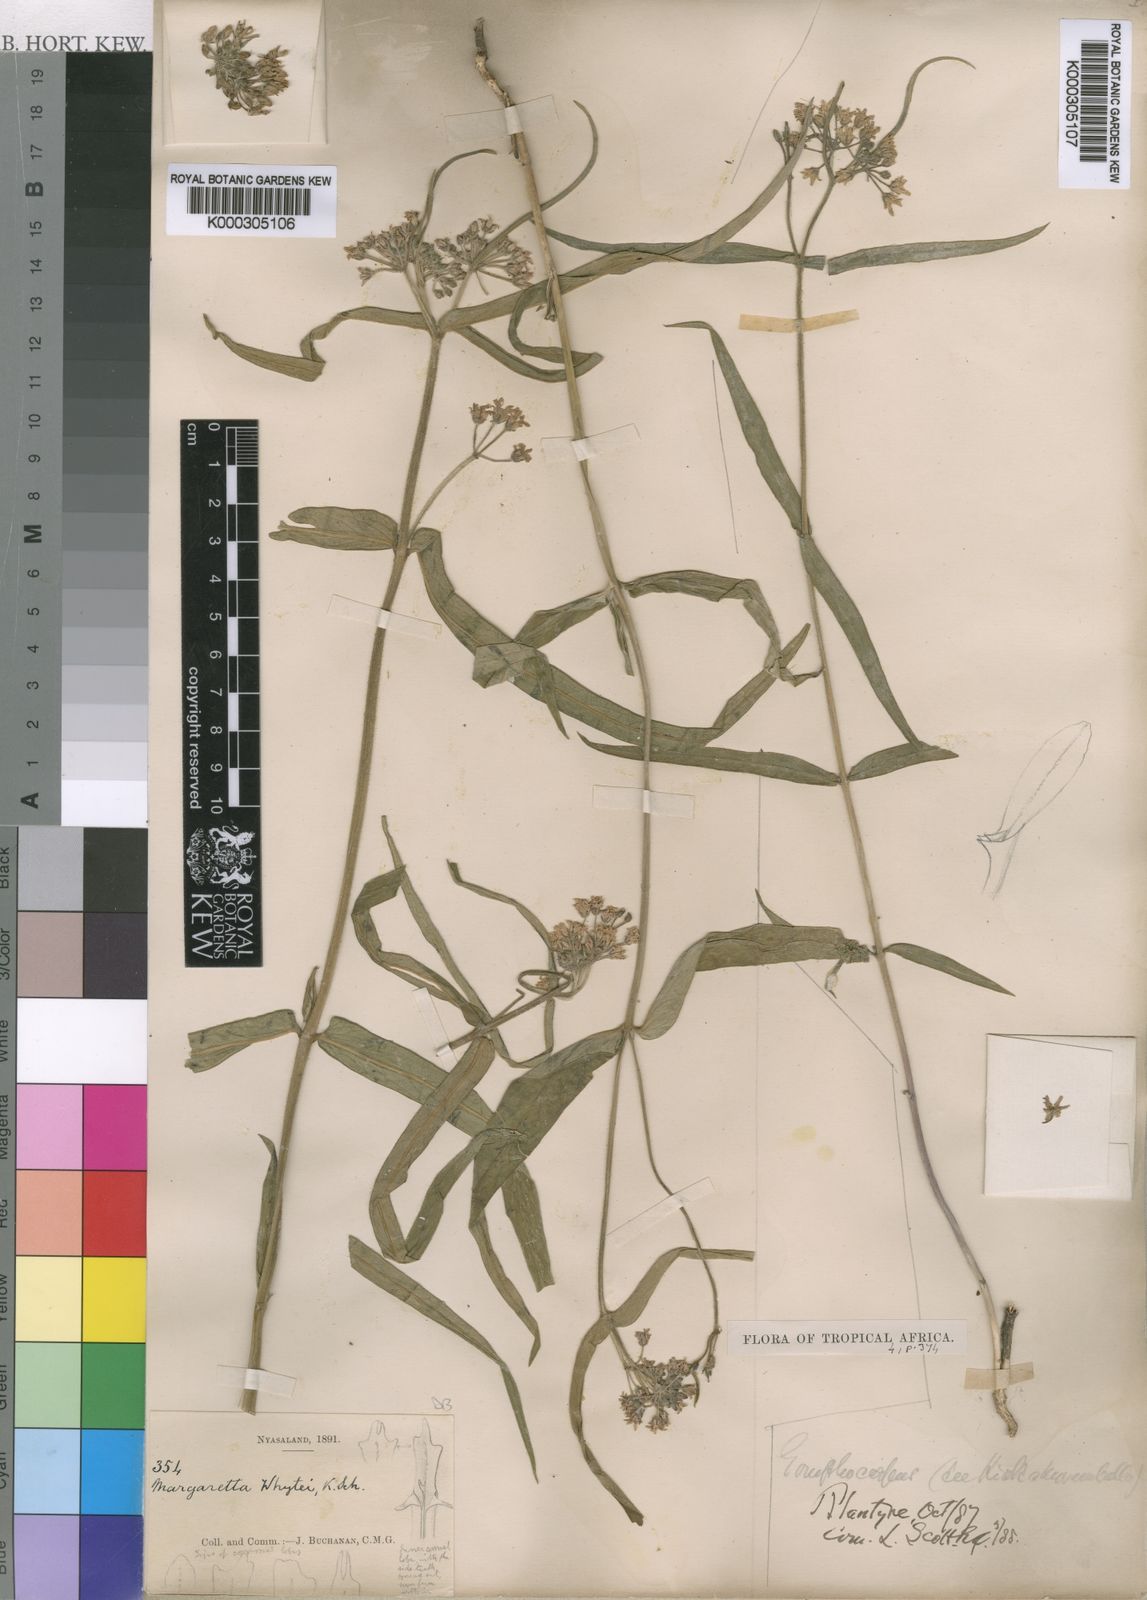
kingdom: Plantae
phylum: Tracheophyta
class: Magnoliopsida
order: Gentianales
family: Apocynaceae
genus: Margaretta
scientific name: Margaretta rosea
